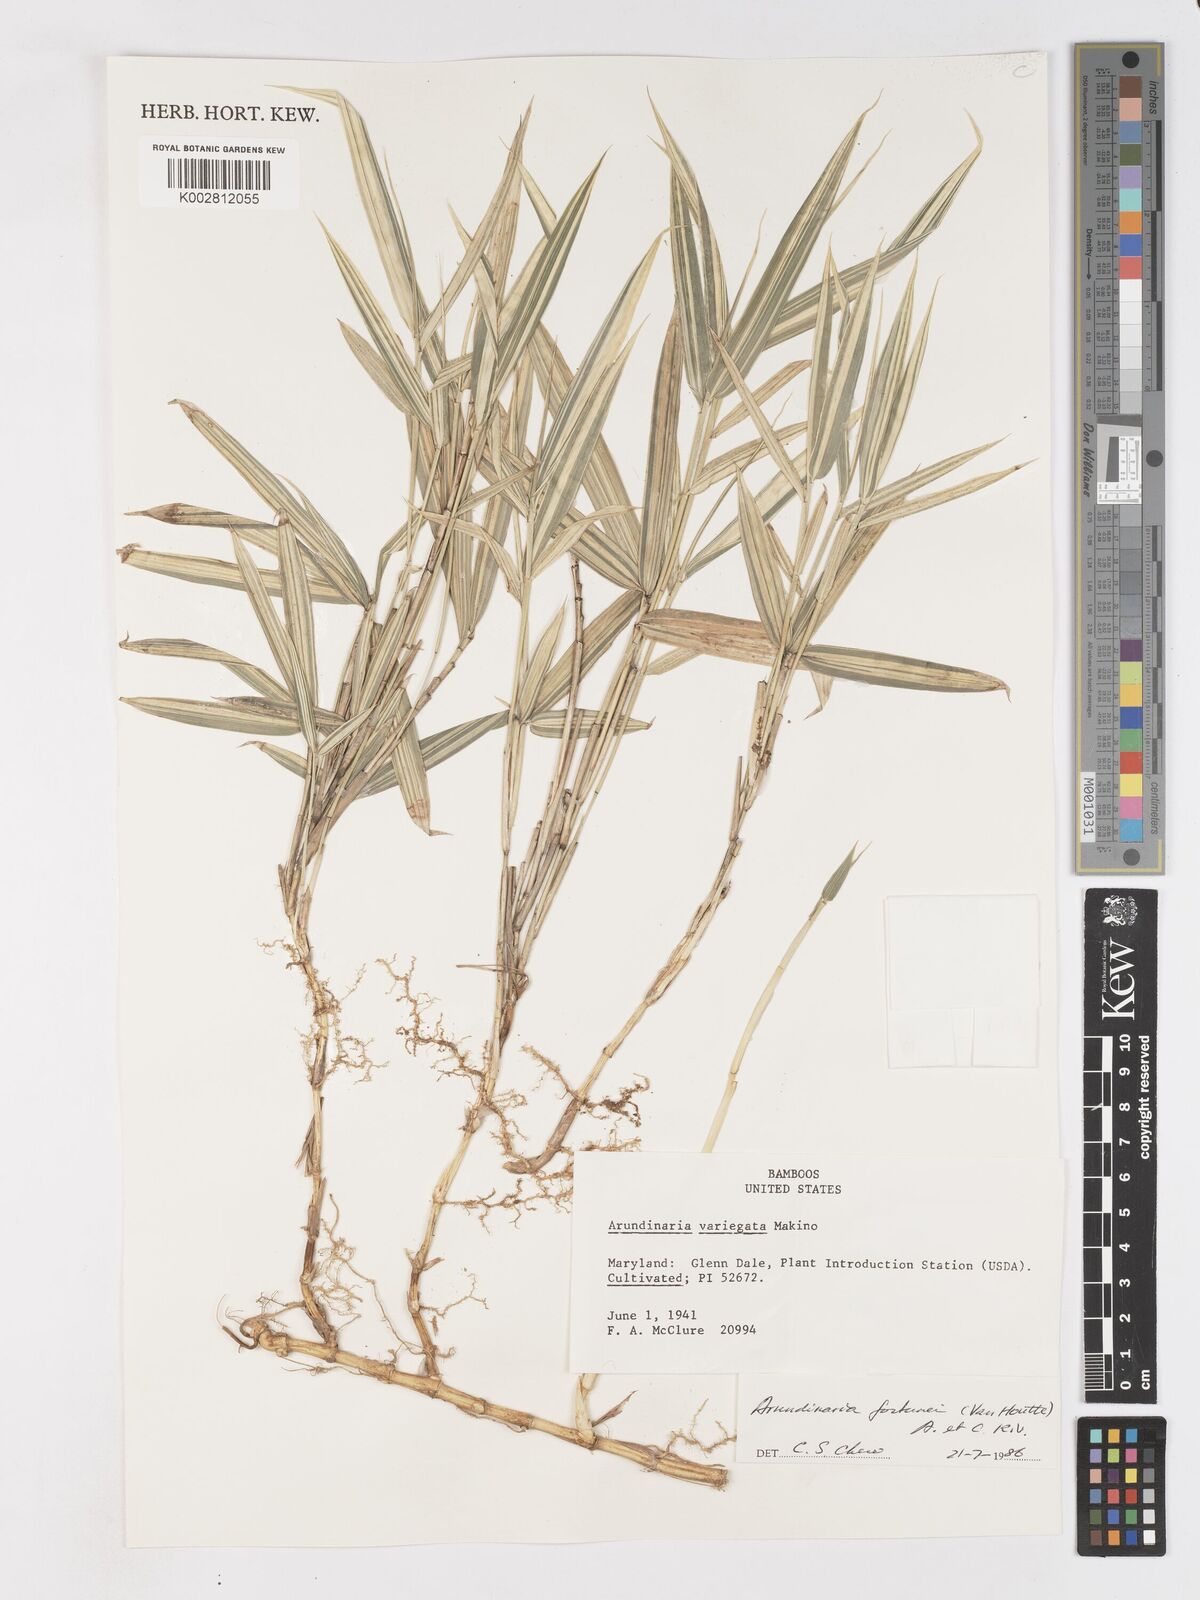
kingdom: Plantae
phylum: Tracheophyta
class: Liliopsida
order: Poales
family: Poaceae
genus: Borinda
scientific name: Borinda pleniculmis
